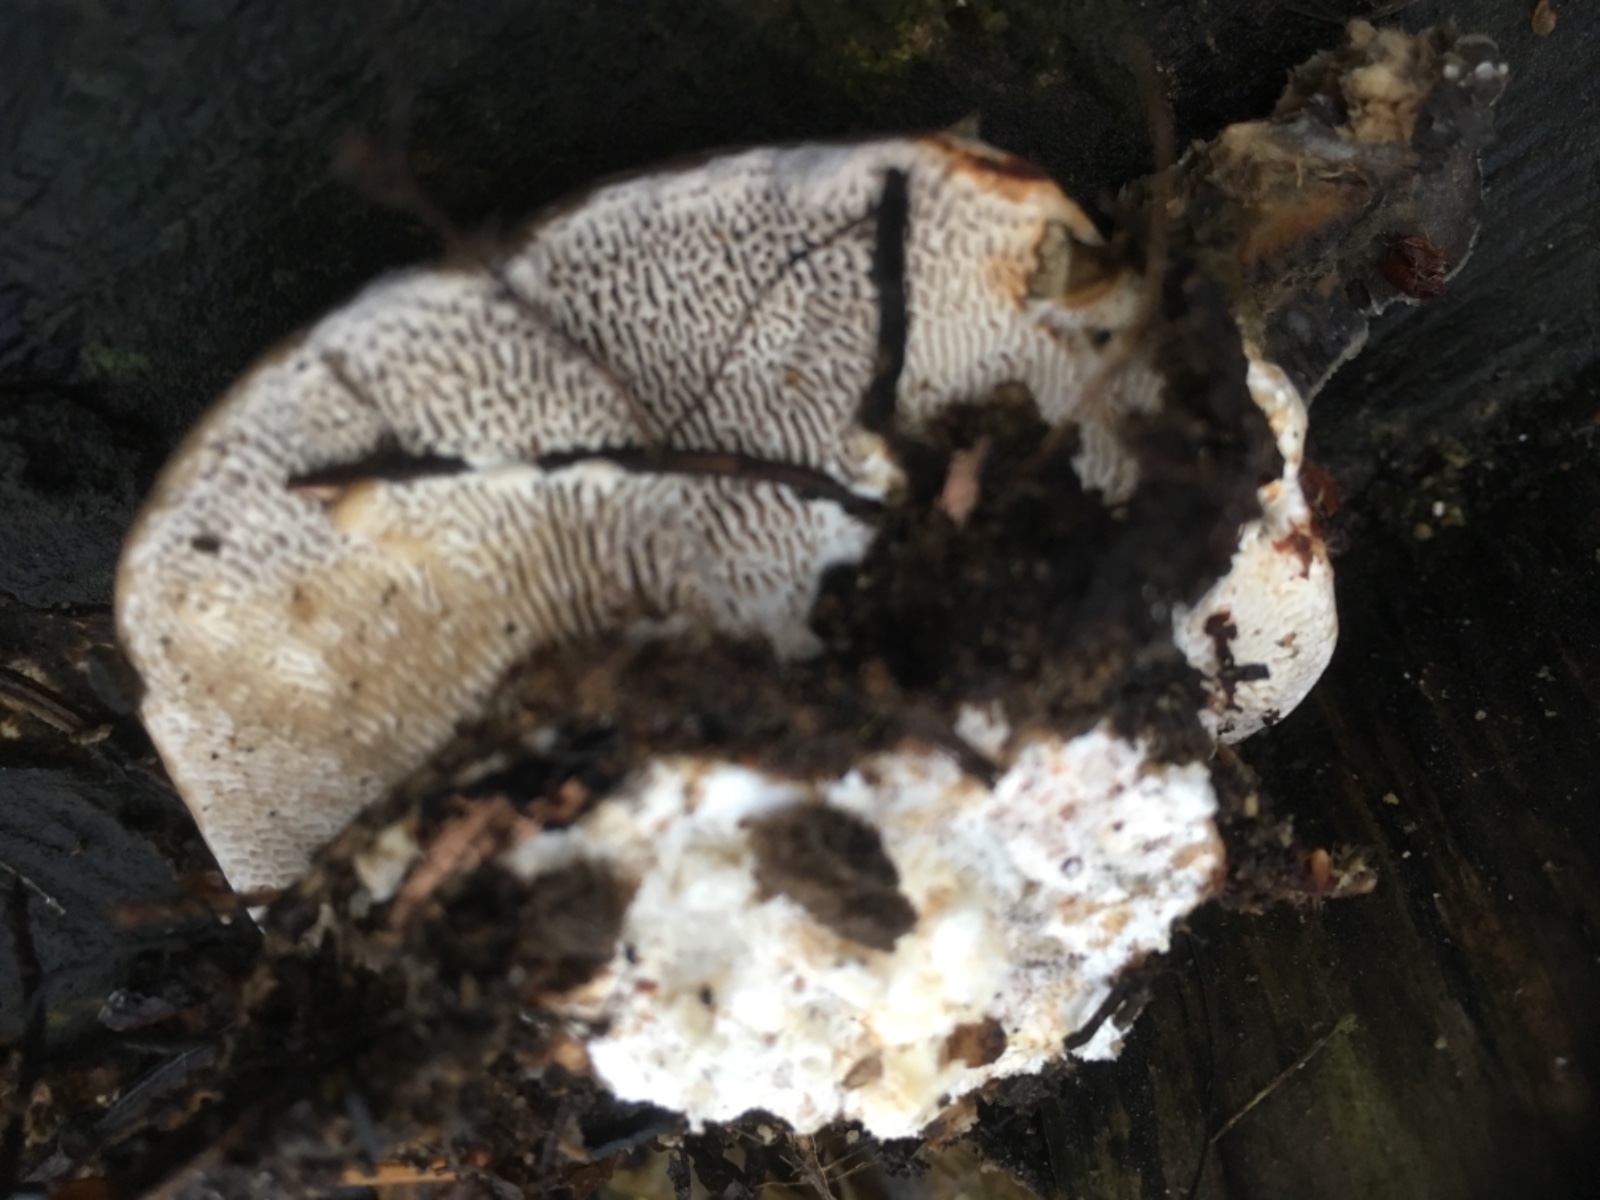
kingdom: Fungi
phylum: Basidiomycota
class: Agaricomycetes
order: Polyporales
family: Polyporaceae
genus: Daedaleopsis
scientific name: Daedaleopsis confragosa
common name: rødmende læderporesvamp
